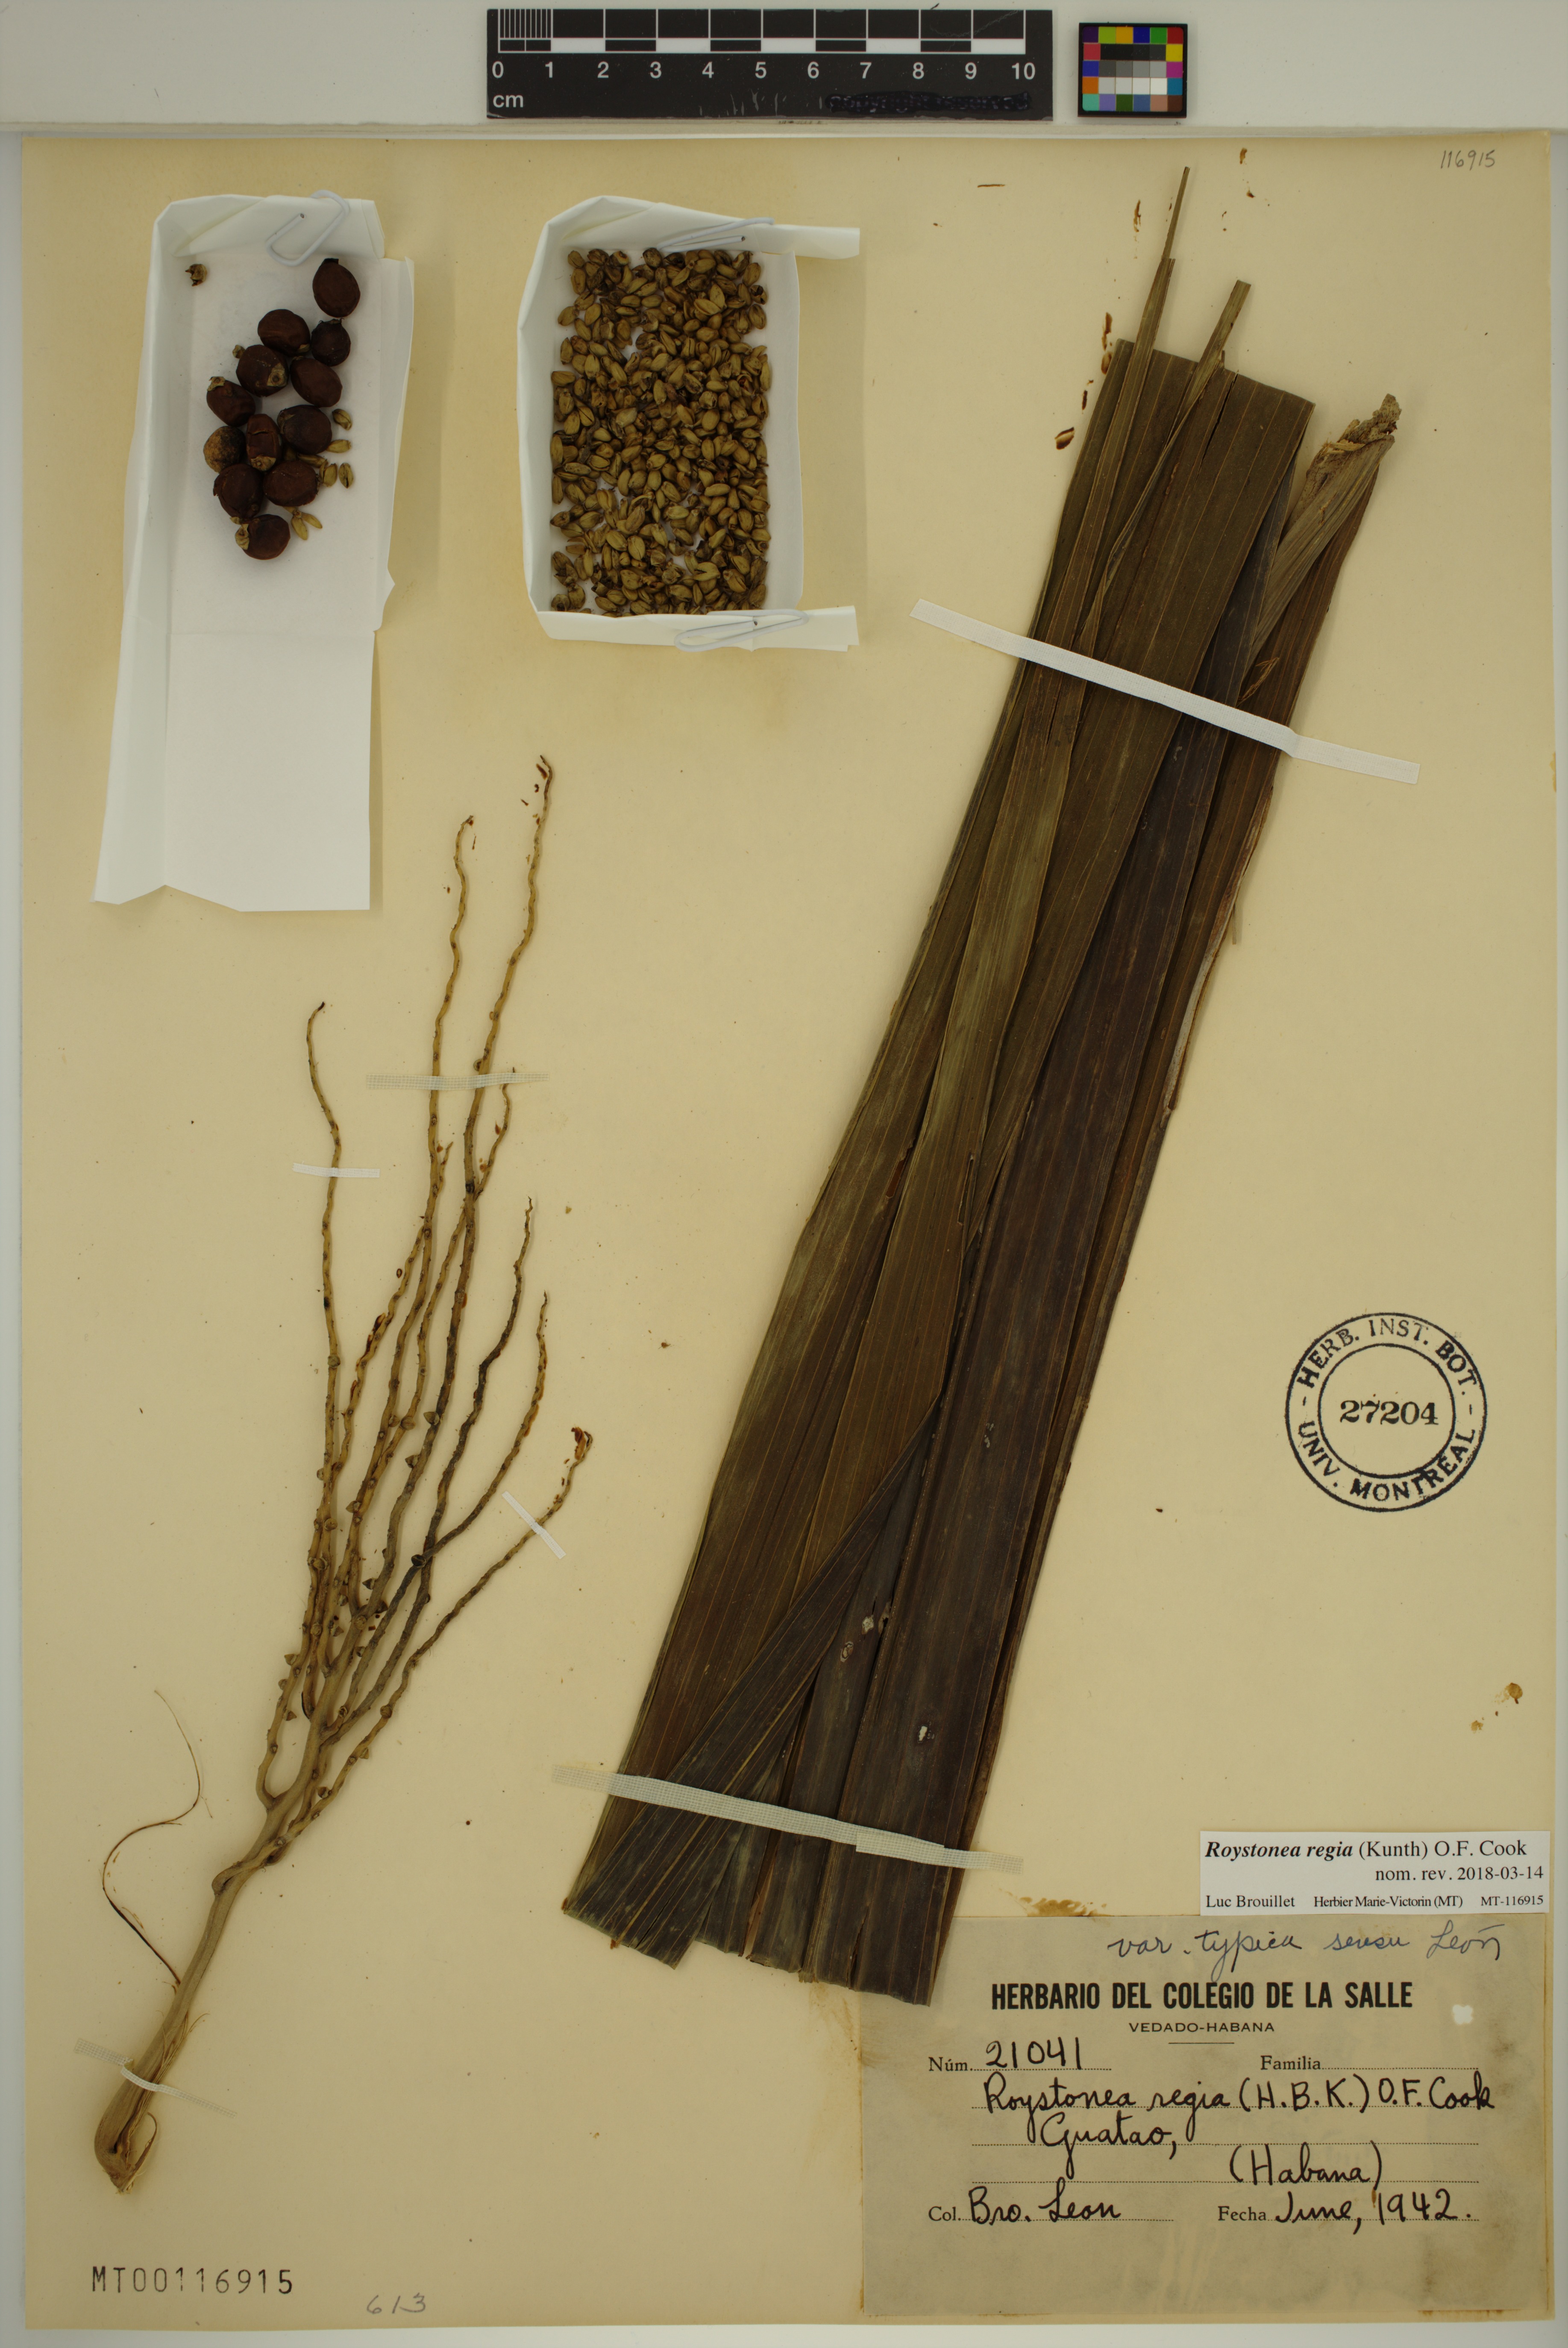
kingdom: Plantae
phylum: Tracheophyta
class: Liliopsida
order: Arecales
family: Arecaceae
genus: Roystonea
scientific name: Roystonea regia
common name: Florida royal palm
